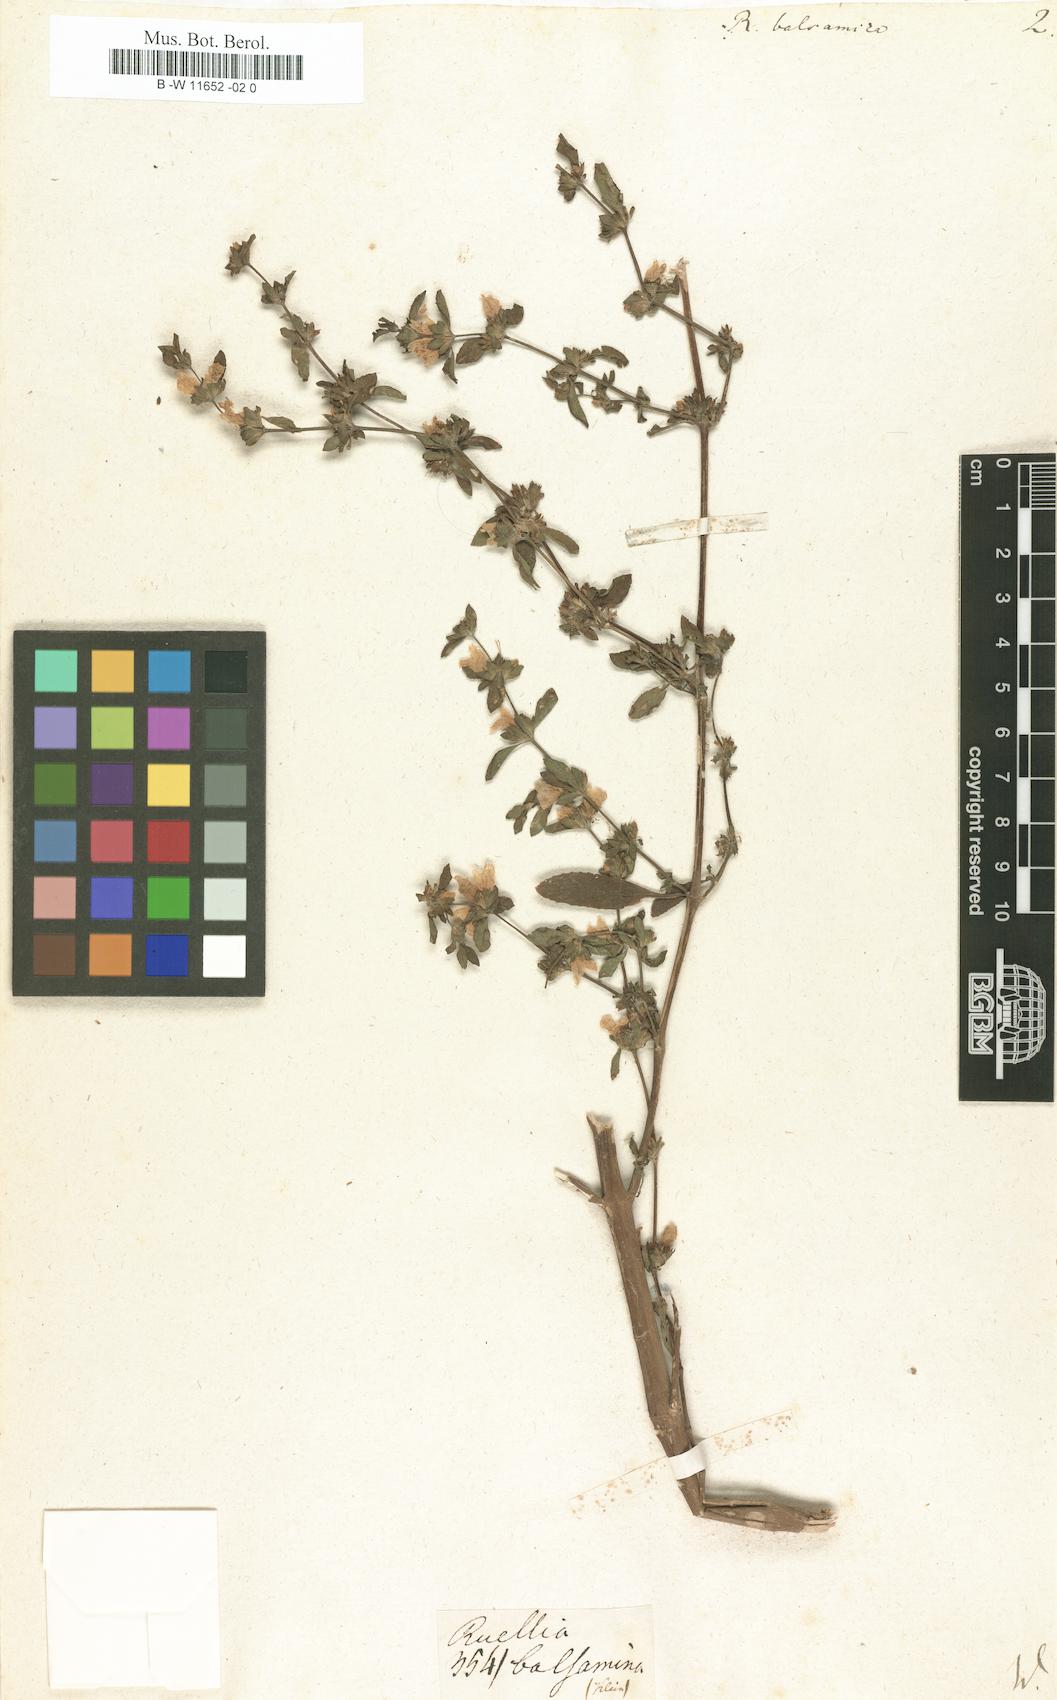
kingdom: Plantae
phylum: Tracheophyta
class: Magnoliopsida
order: Lamiales
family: Acanthaceae
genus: Hygrophila
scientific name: Hygrophila balsamica
